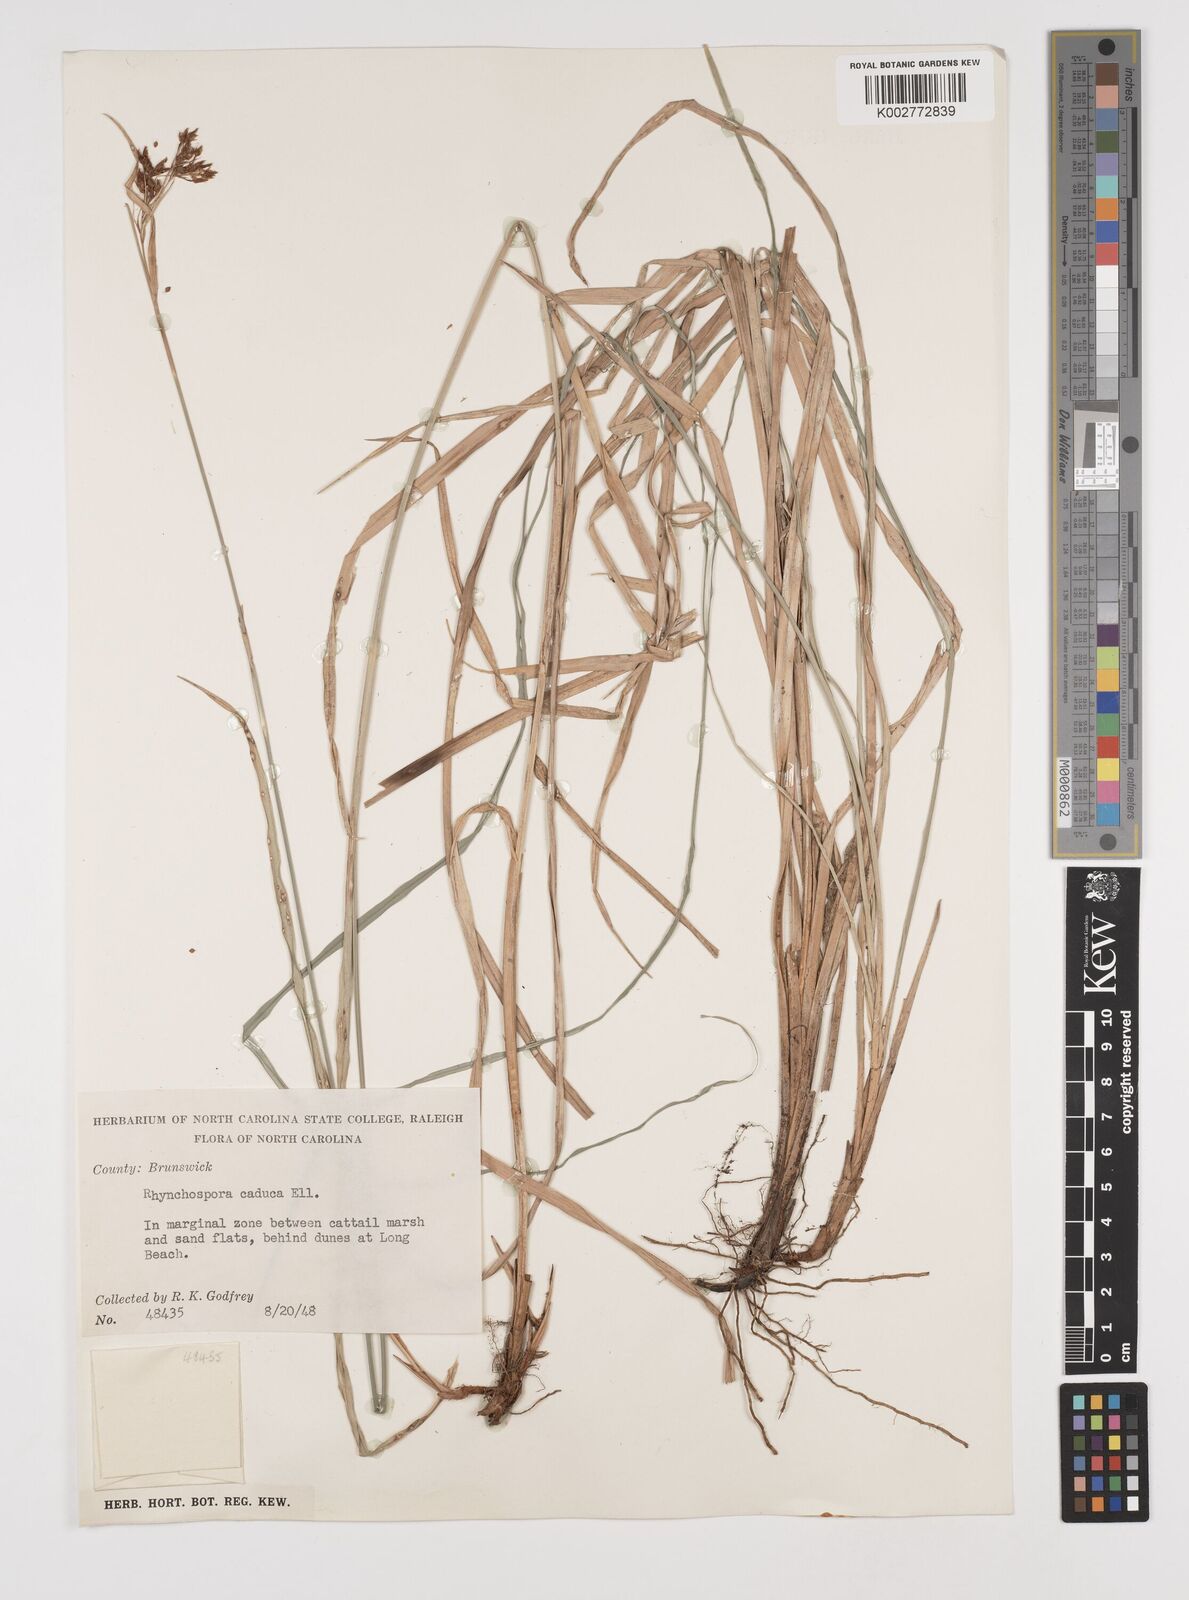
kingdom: Plantae
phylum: Tracheophyta
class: Liliopsida
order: Poales
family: Cyperaceae
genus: Rhynchospora
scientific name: Rhynchospora caduca
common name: Anglestem beaksedge
